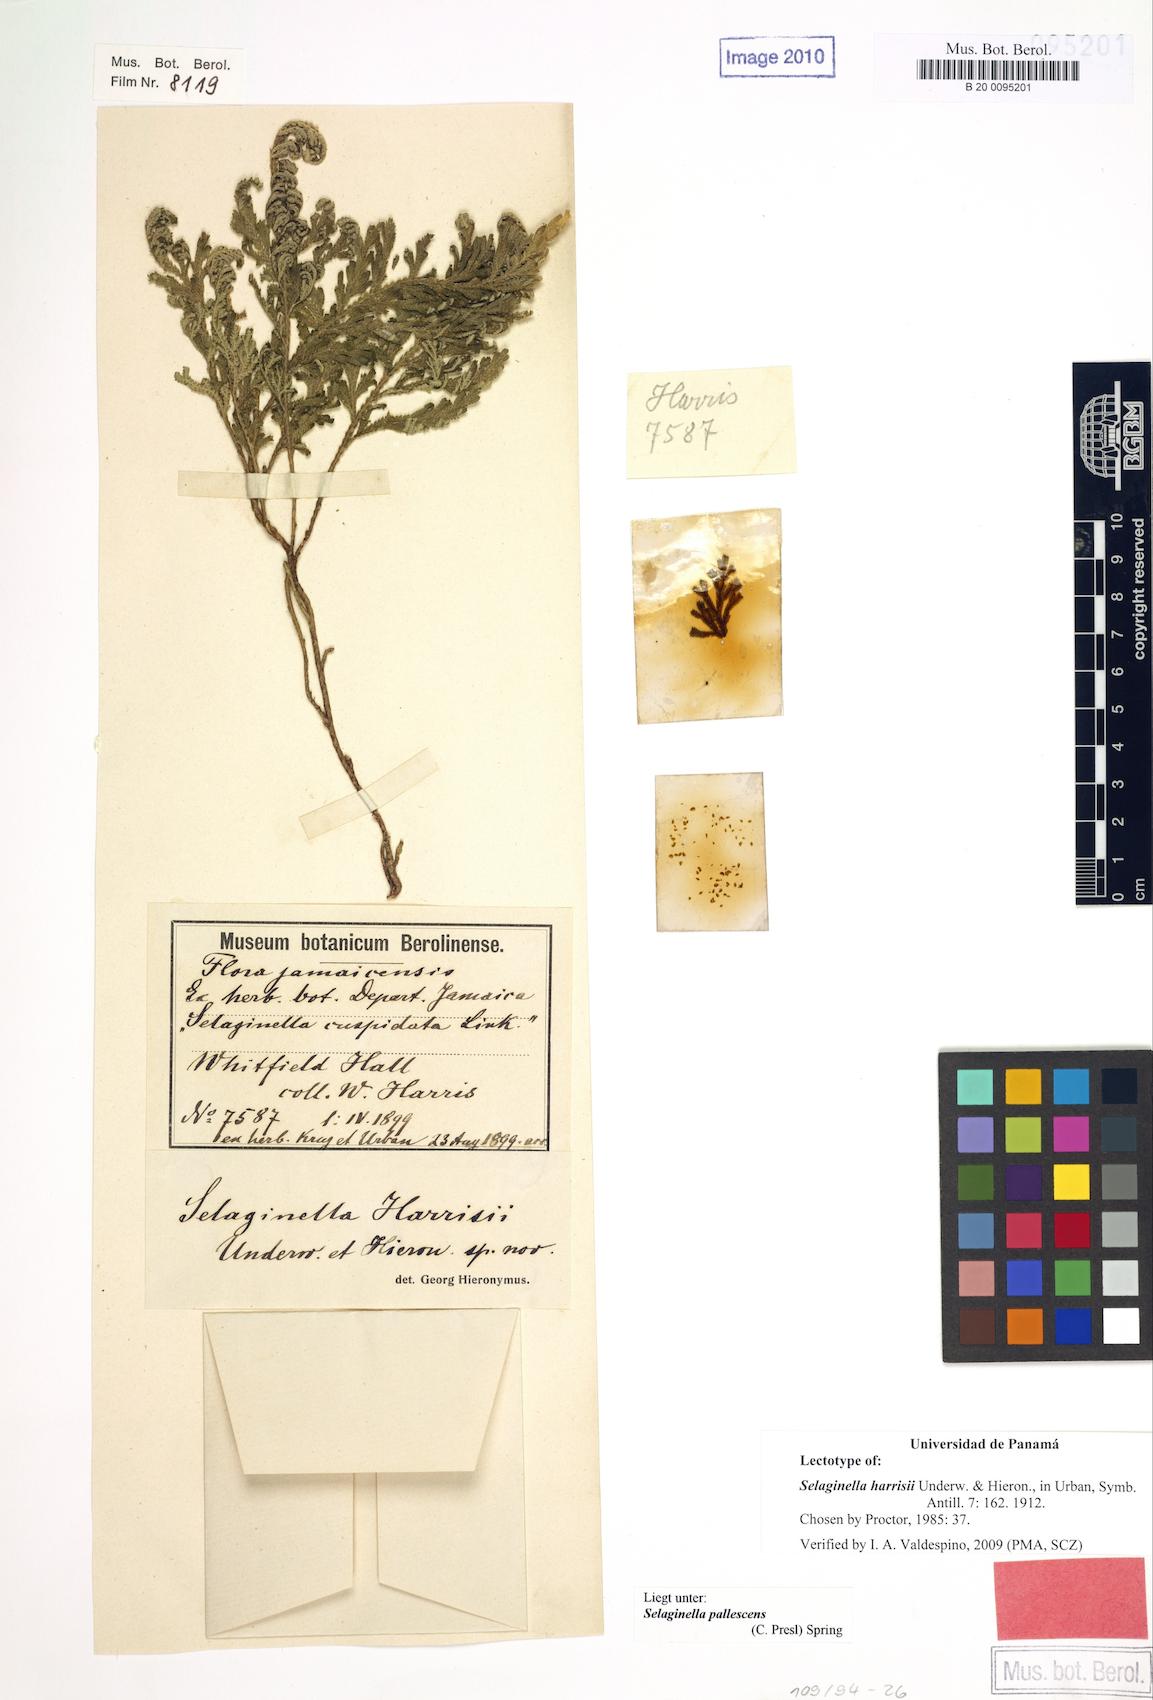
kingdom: Plantae
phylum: Tracheophyta
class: Lycopodiopsida
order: Selaginellales
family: Selaginellaceae
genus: Selaginella
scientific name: Selaginella harrisii
